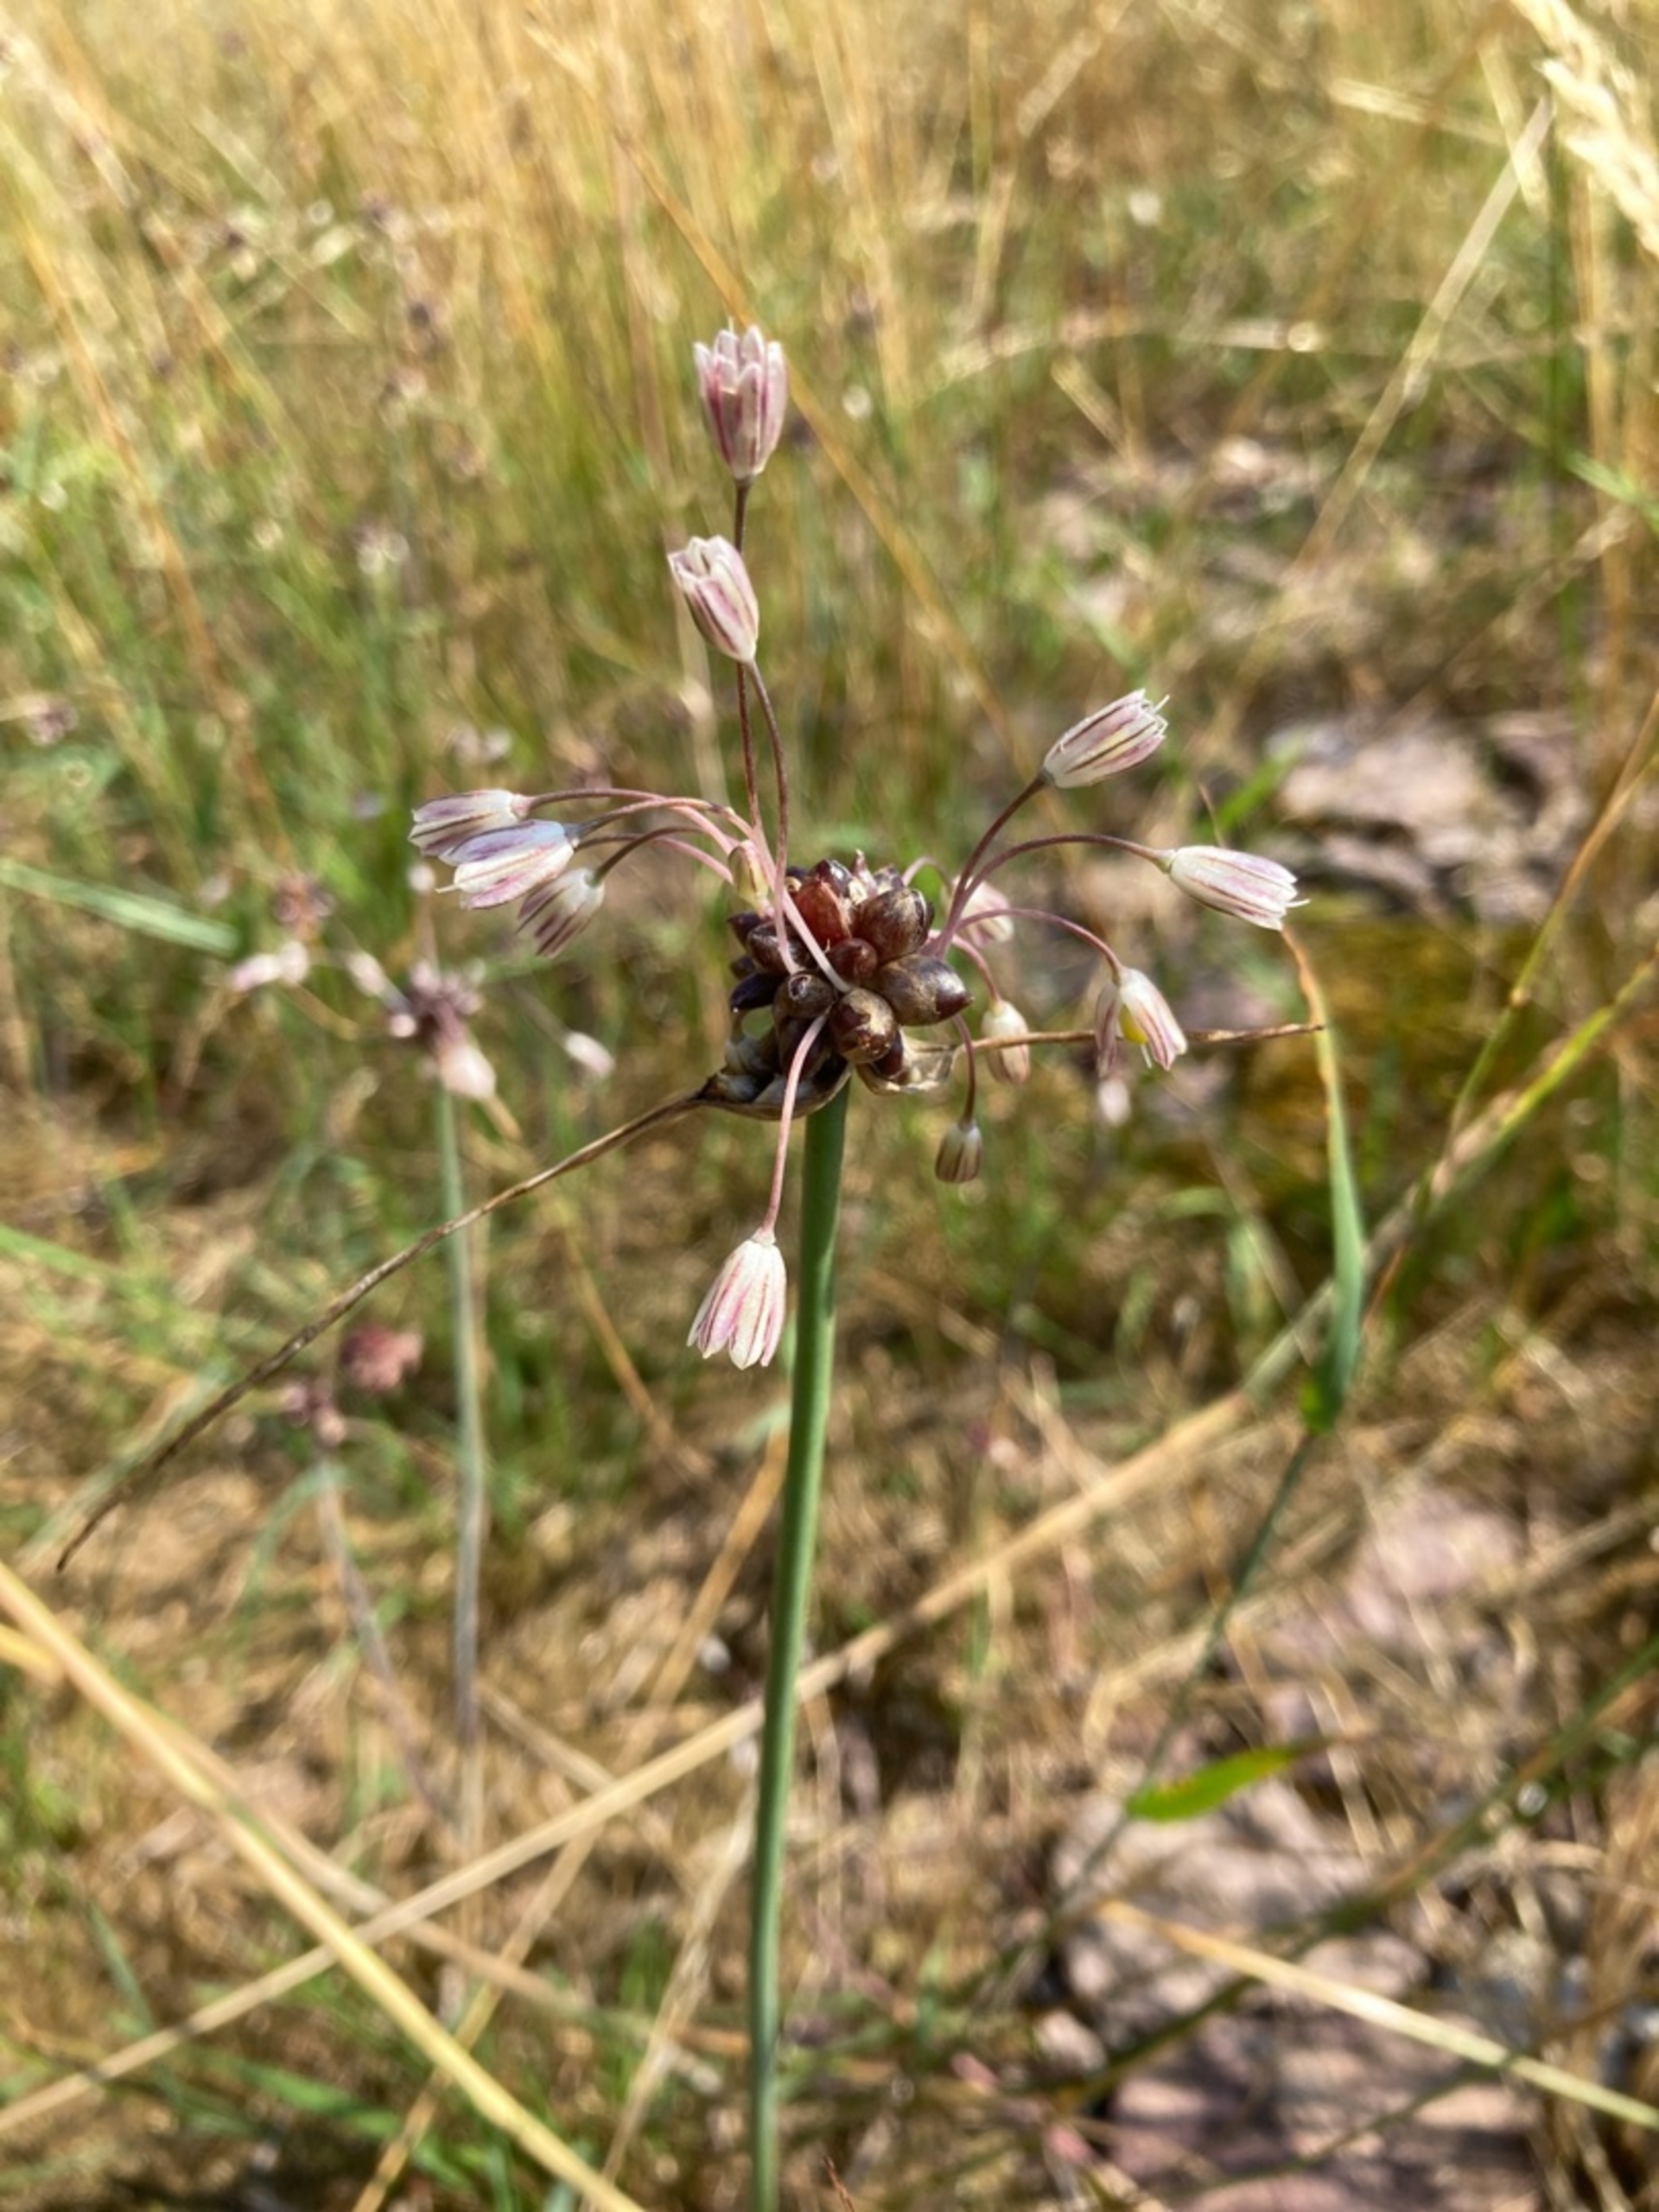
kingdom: Plantae
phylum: Tracheophyta
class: Liliopsida
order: Asparagales
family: Amaryllidaceae
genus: Allium
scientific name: Allium oleraceum
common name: Vild løg
